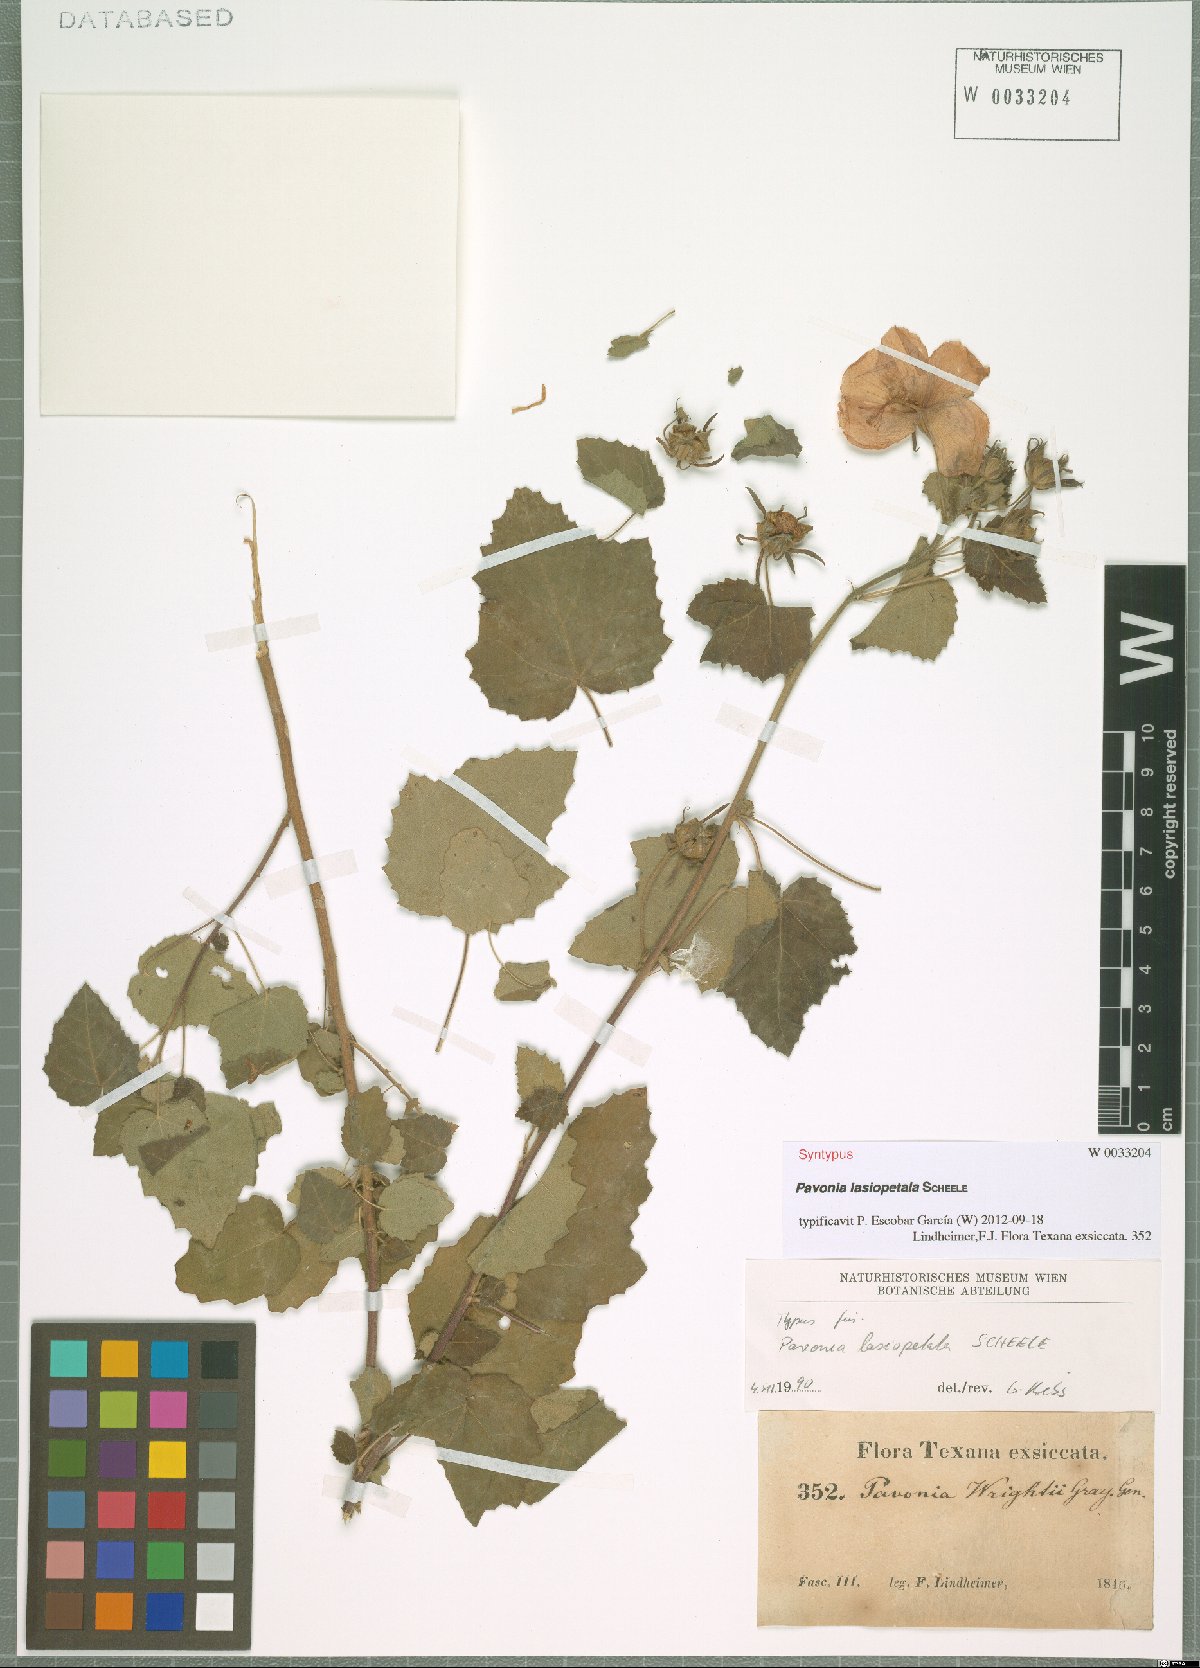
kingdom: Plantae
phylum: Tracheophyta
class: Magnoliopsida
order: Malvales
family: Malvaceae
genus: Pavonia
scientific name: Pavonia lasiopetala
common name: Texas swamp-mallow
